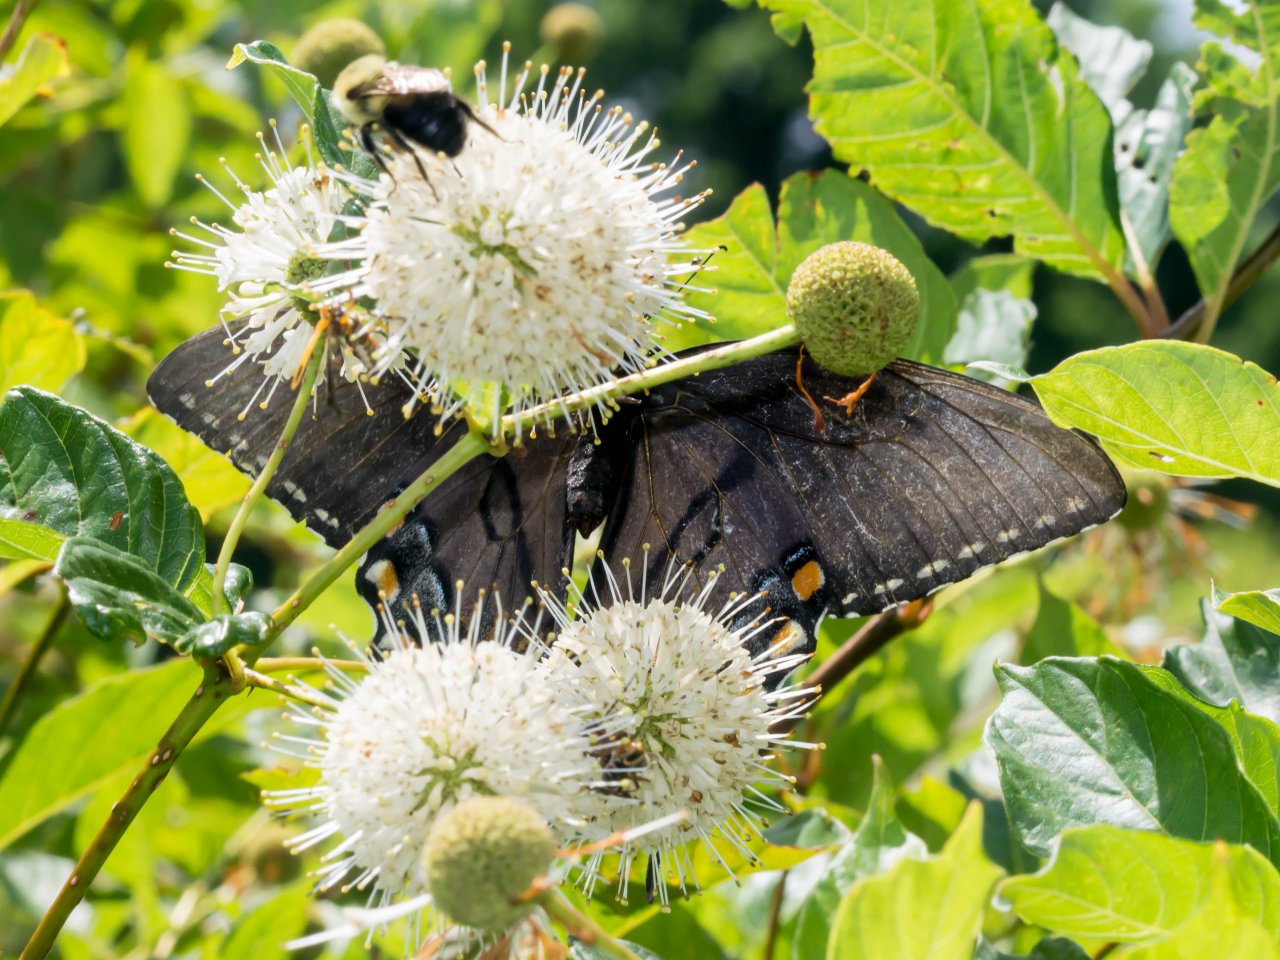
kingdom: Animalia
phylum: Arthropoda
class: Insecta
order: Lepidoptera
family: Papilionidae
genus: Pterourus
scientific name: Pterourus glaucus
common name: Eastern Tiger Swallowtail
